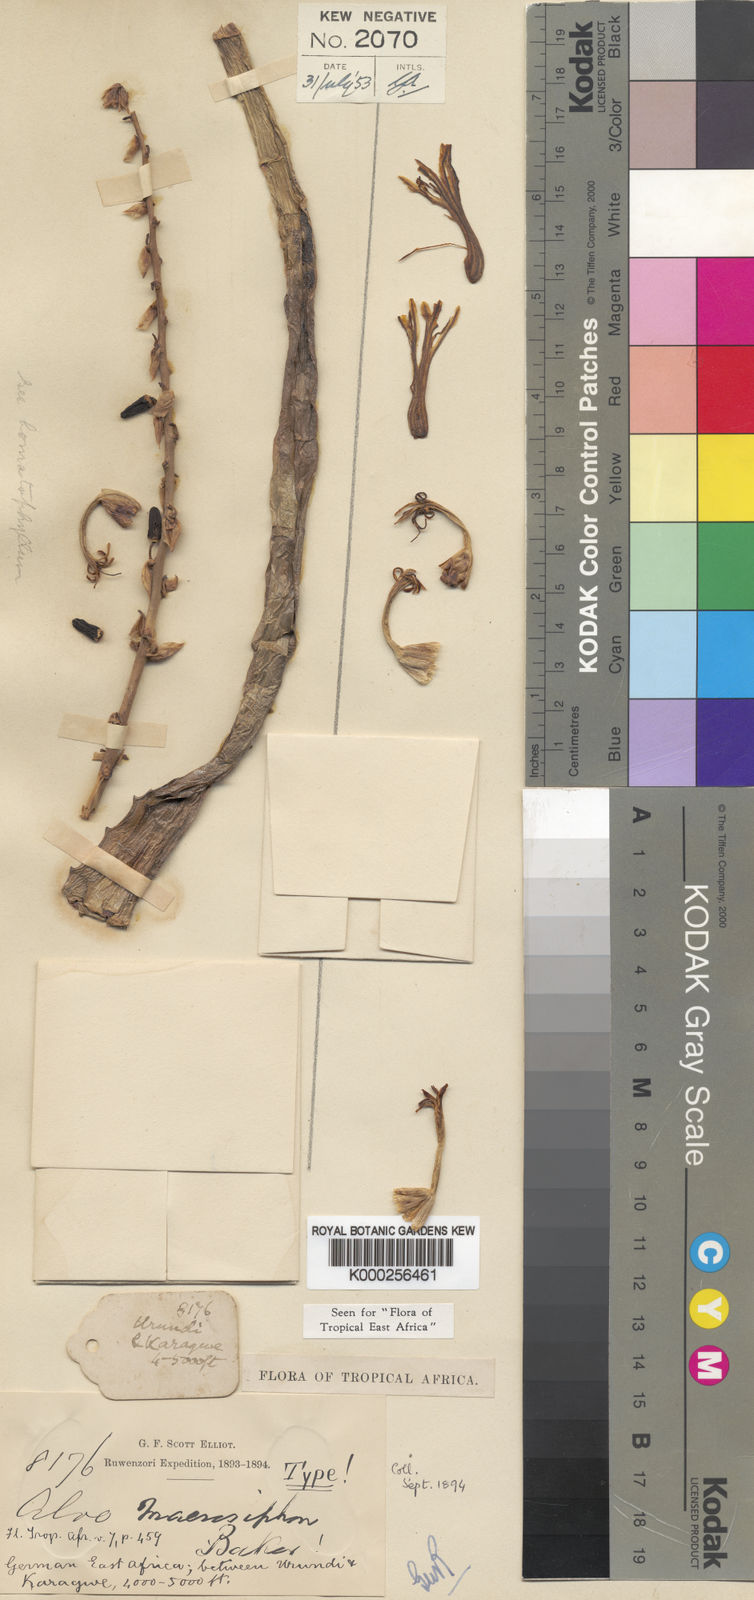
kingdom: Plantae
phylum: Tracheophyta
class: Liliopsida
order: Asparagales
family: Asphodelaceae
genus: Aloe
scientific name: Aloe macrosiphon
